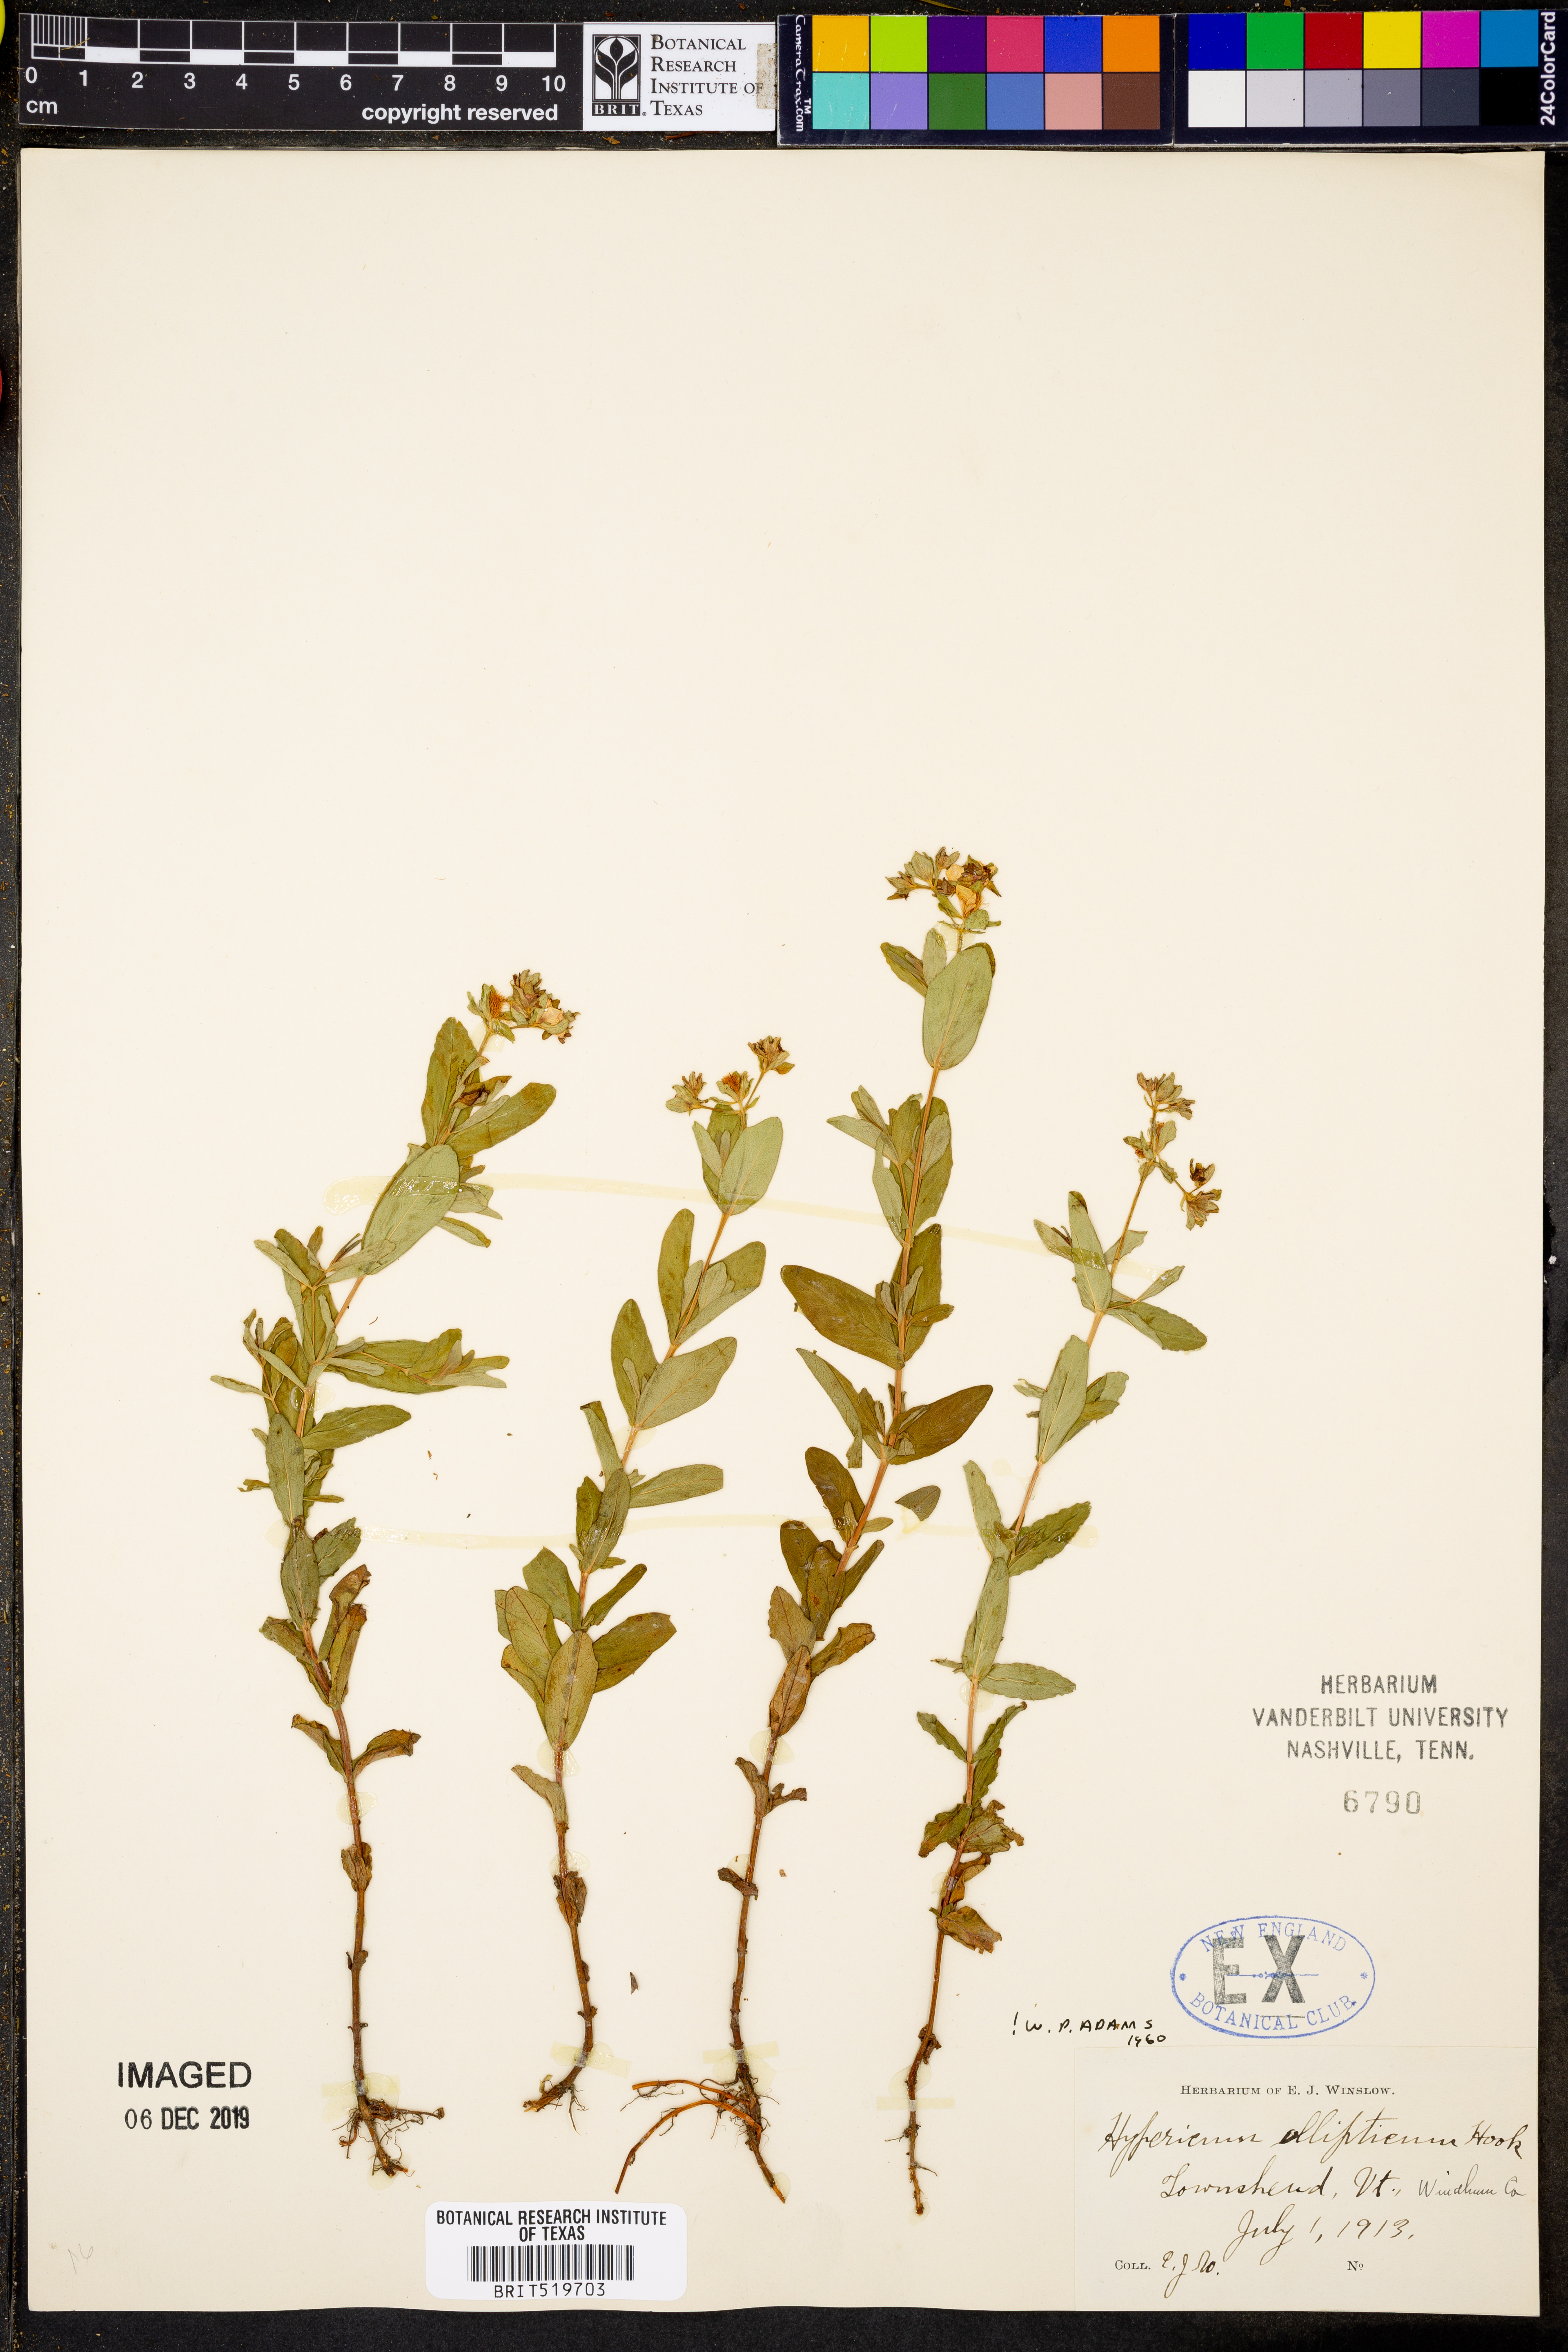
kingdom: Plantae
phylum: Tracheophyta
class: Magnoliopsida
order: Malpighiales
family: Hypericaceae
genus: Hypericum
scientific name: Hypericum ellipticum
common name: Elliptic st. john's-wort
